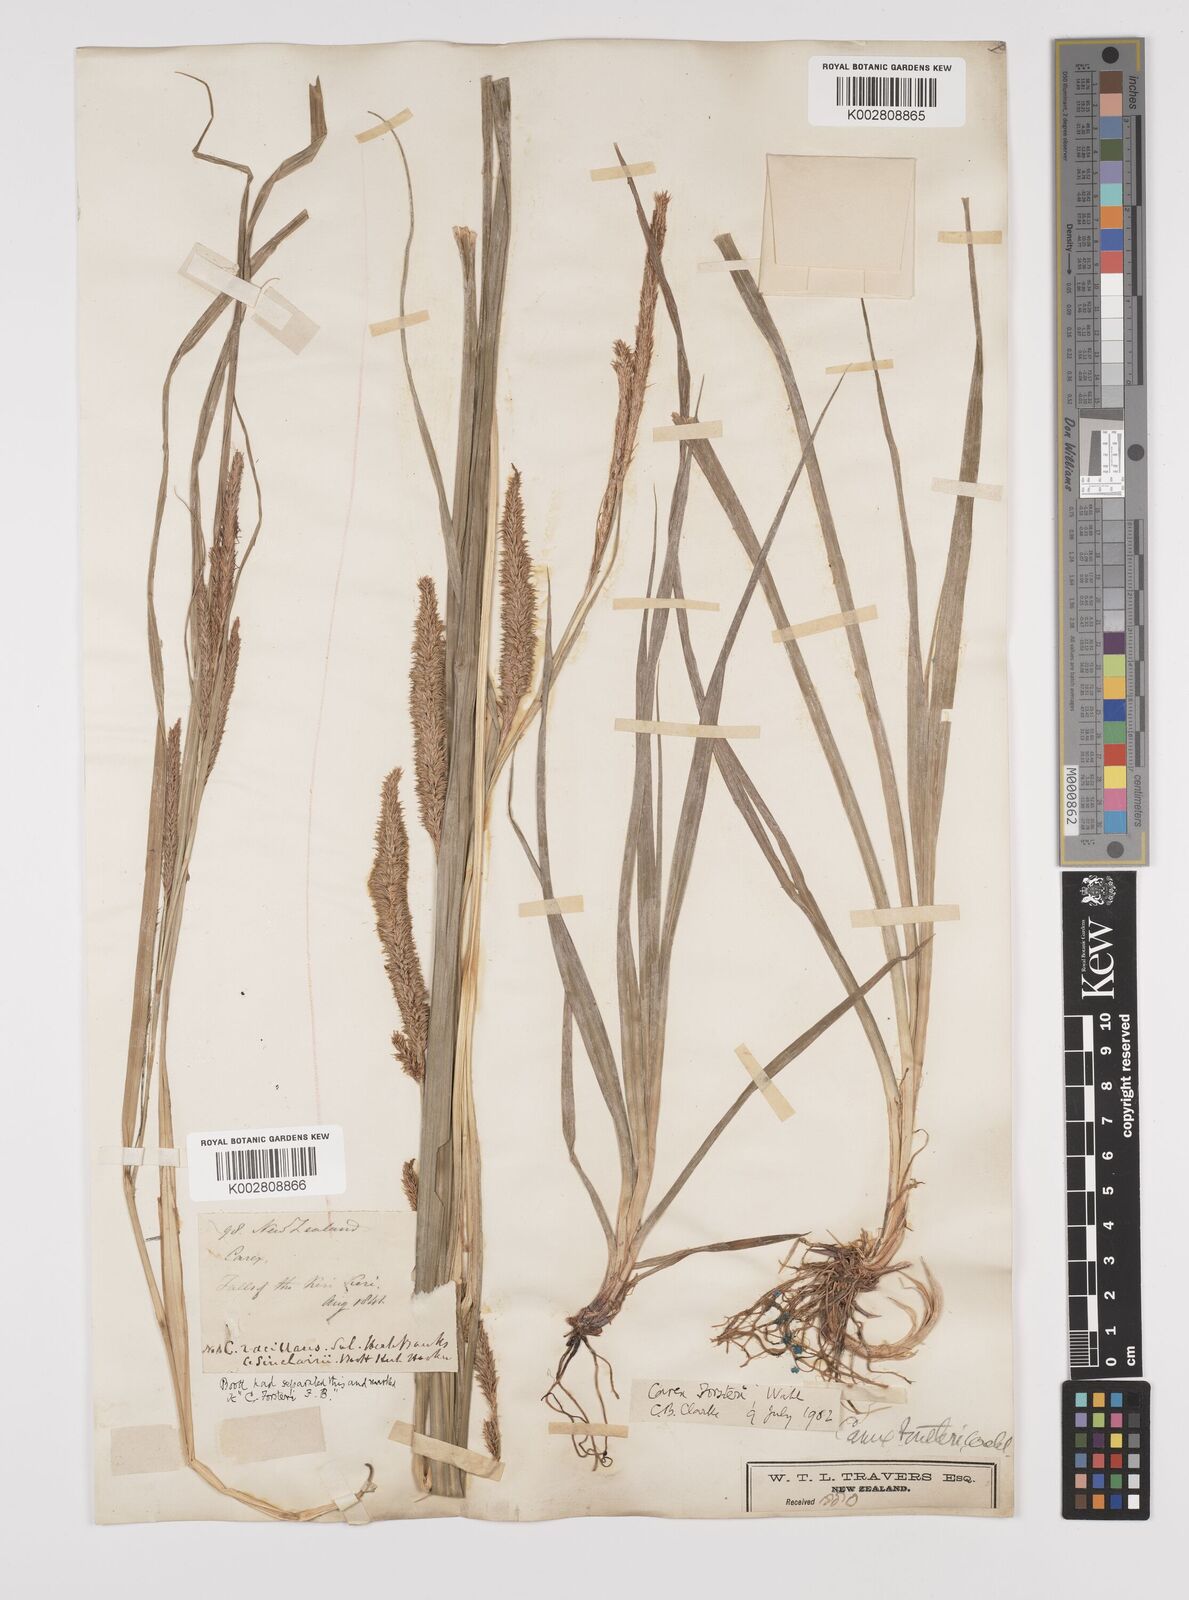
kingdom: Plantae
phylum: Tracheophyta
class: Liliopsida
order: Poales
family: Cyperaceae
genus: Carex
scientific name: Carex forsteri
